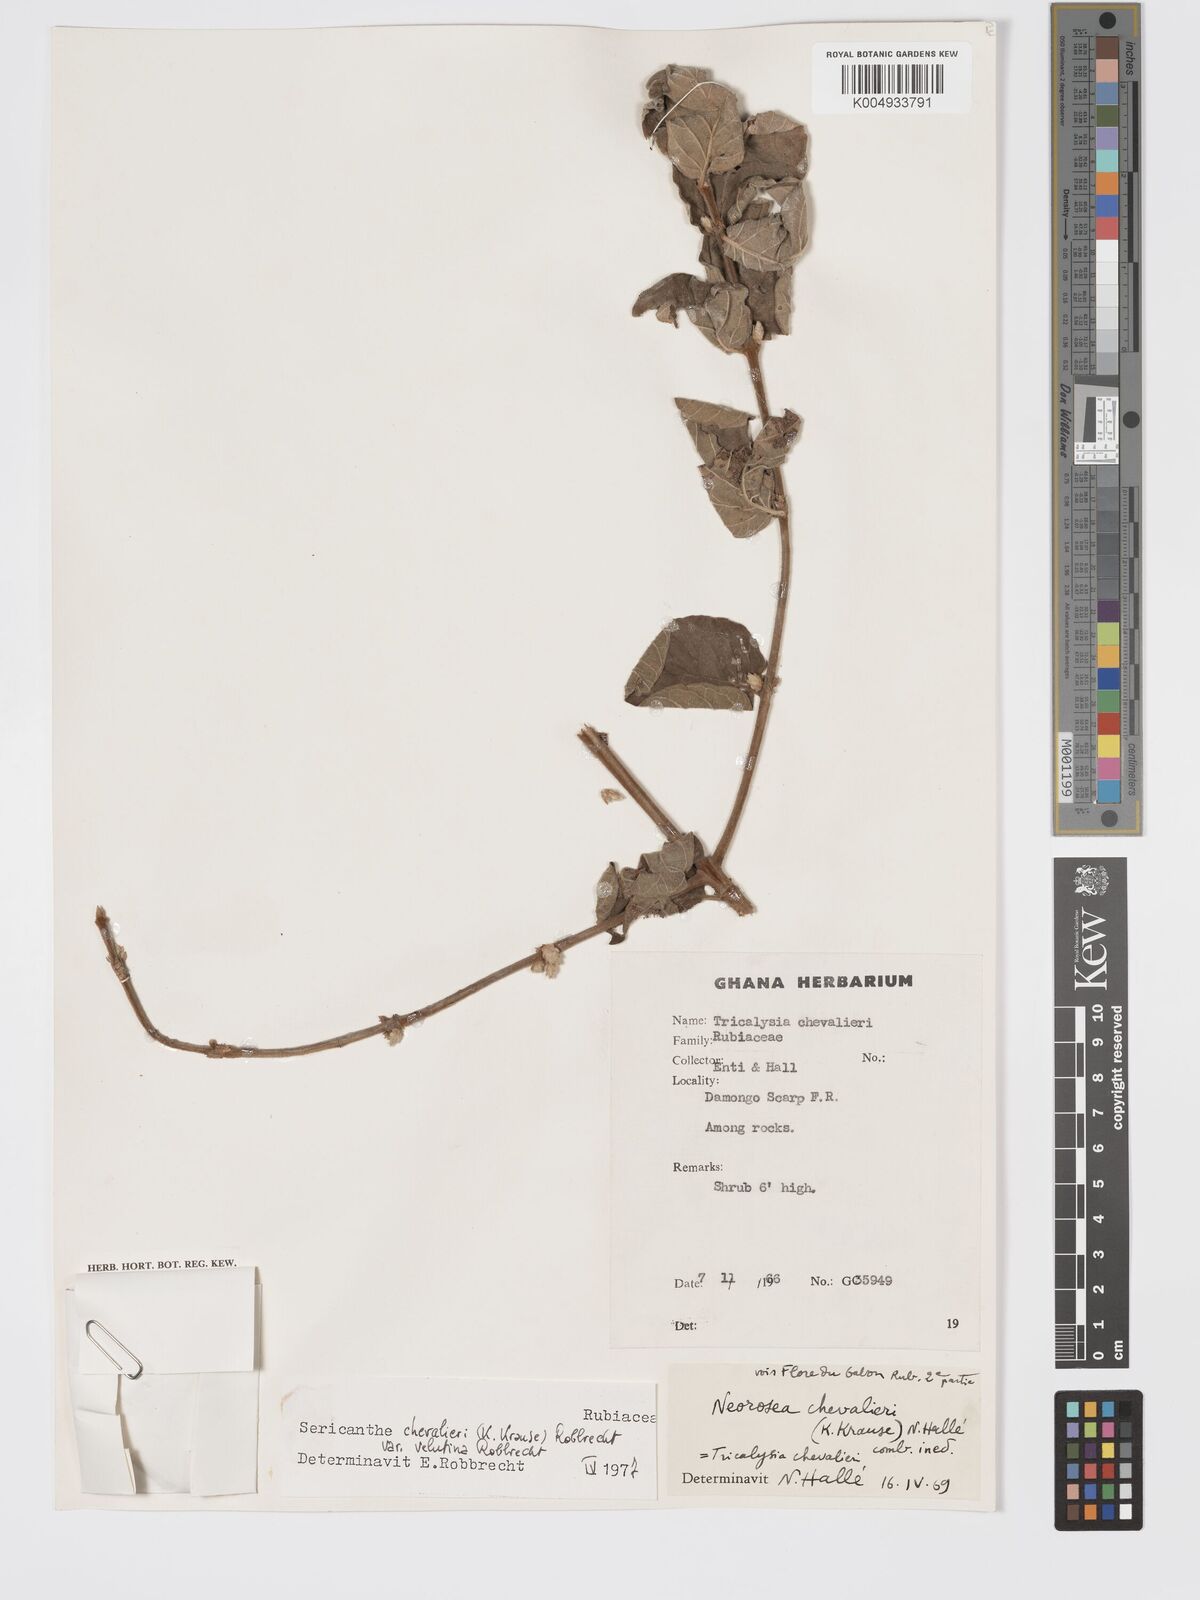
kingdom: Plantae
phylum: Tracheophyta
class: Magnoliopsida
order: Gentianales
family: Rubiaceae
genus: Sericanthe
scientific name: Sericanthe chevalieri
